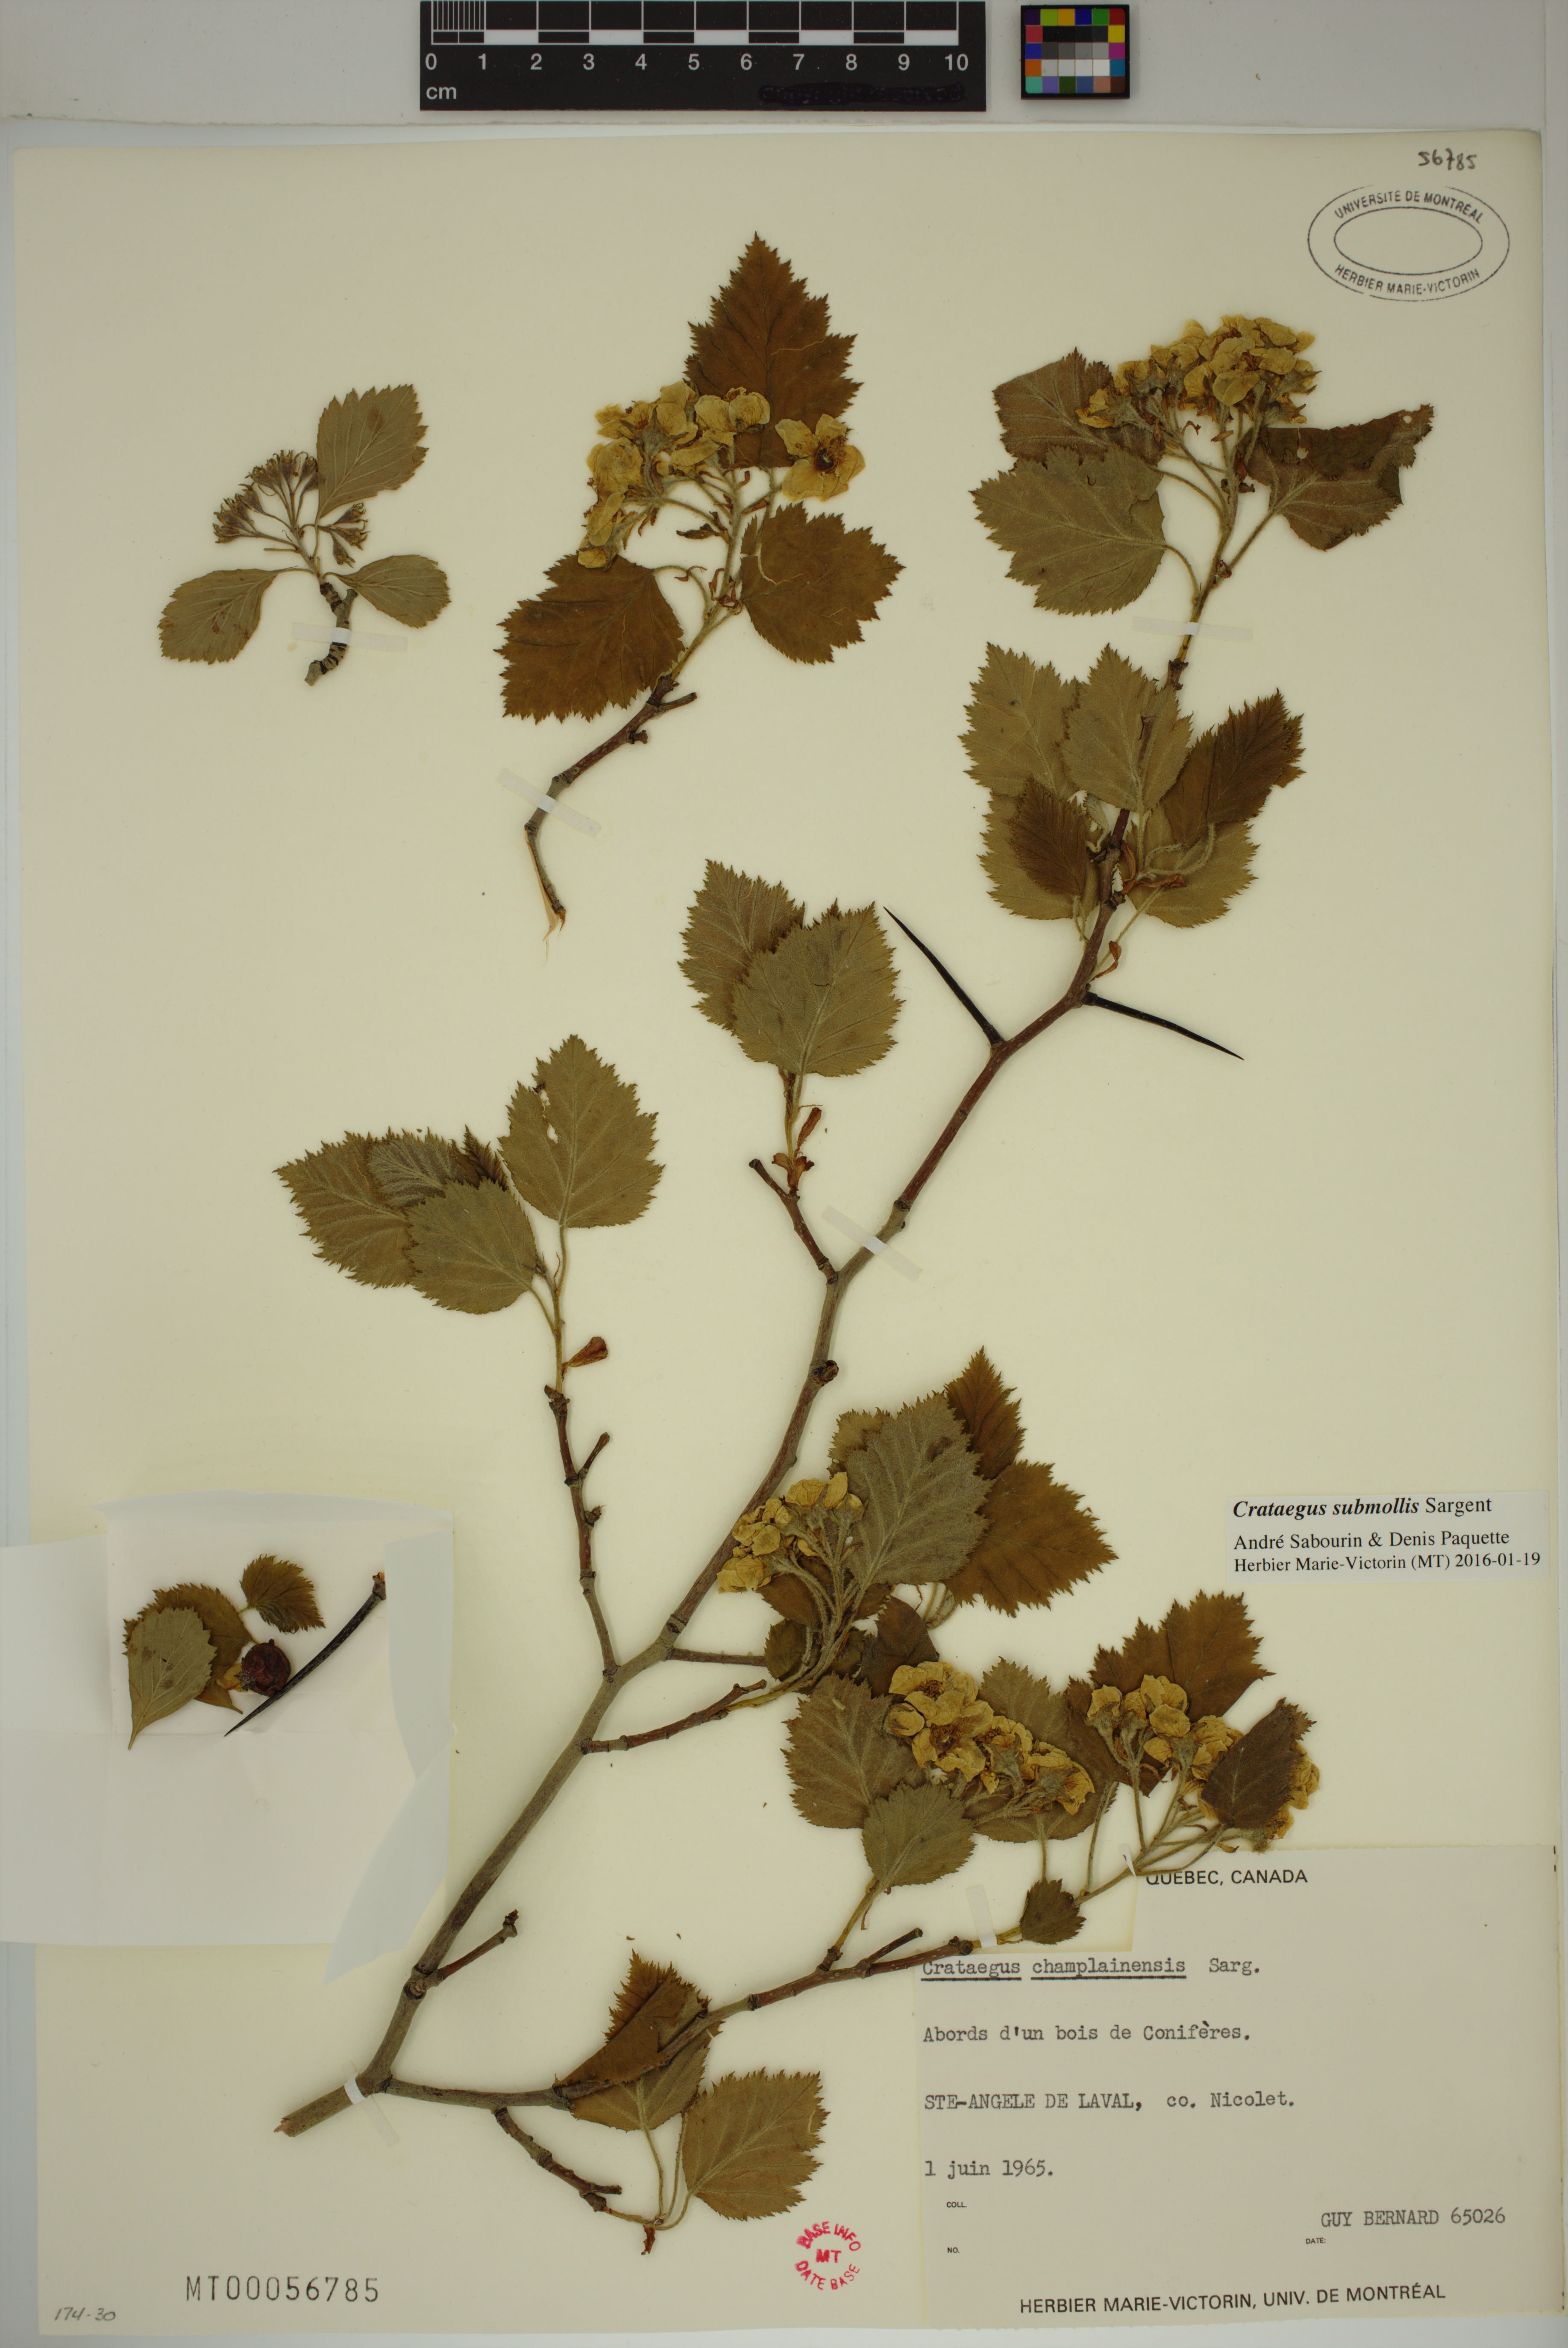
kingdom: Plantae
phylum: Tracheophyta
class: Magnoliopsida
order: Rosales
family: Rosaceae
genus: Crataegus
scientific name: Crataegus submollis
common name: Hairy cockspurthorn
